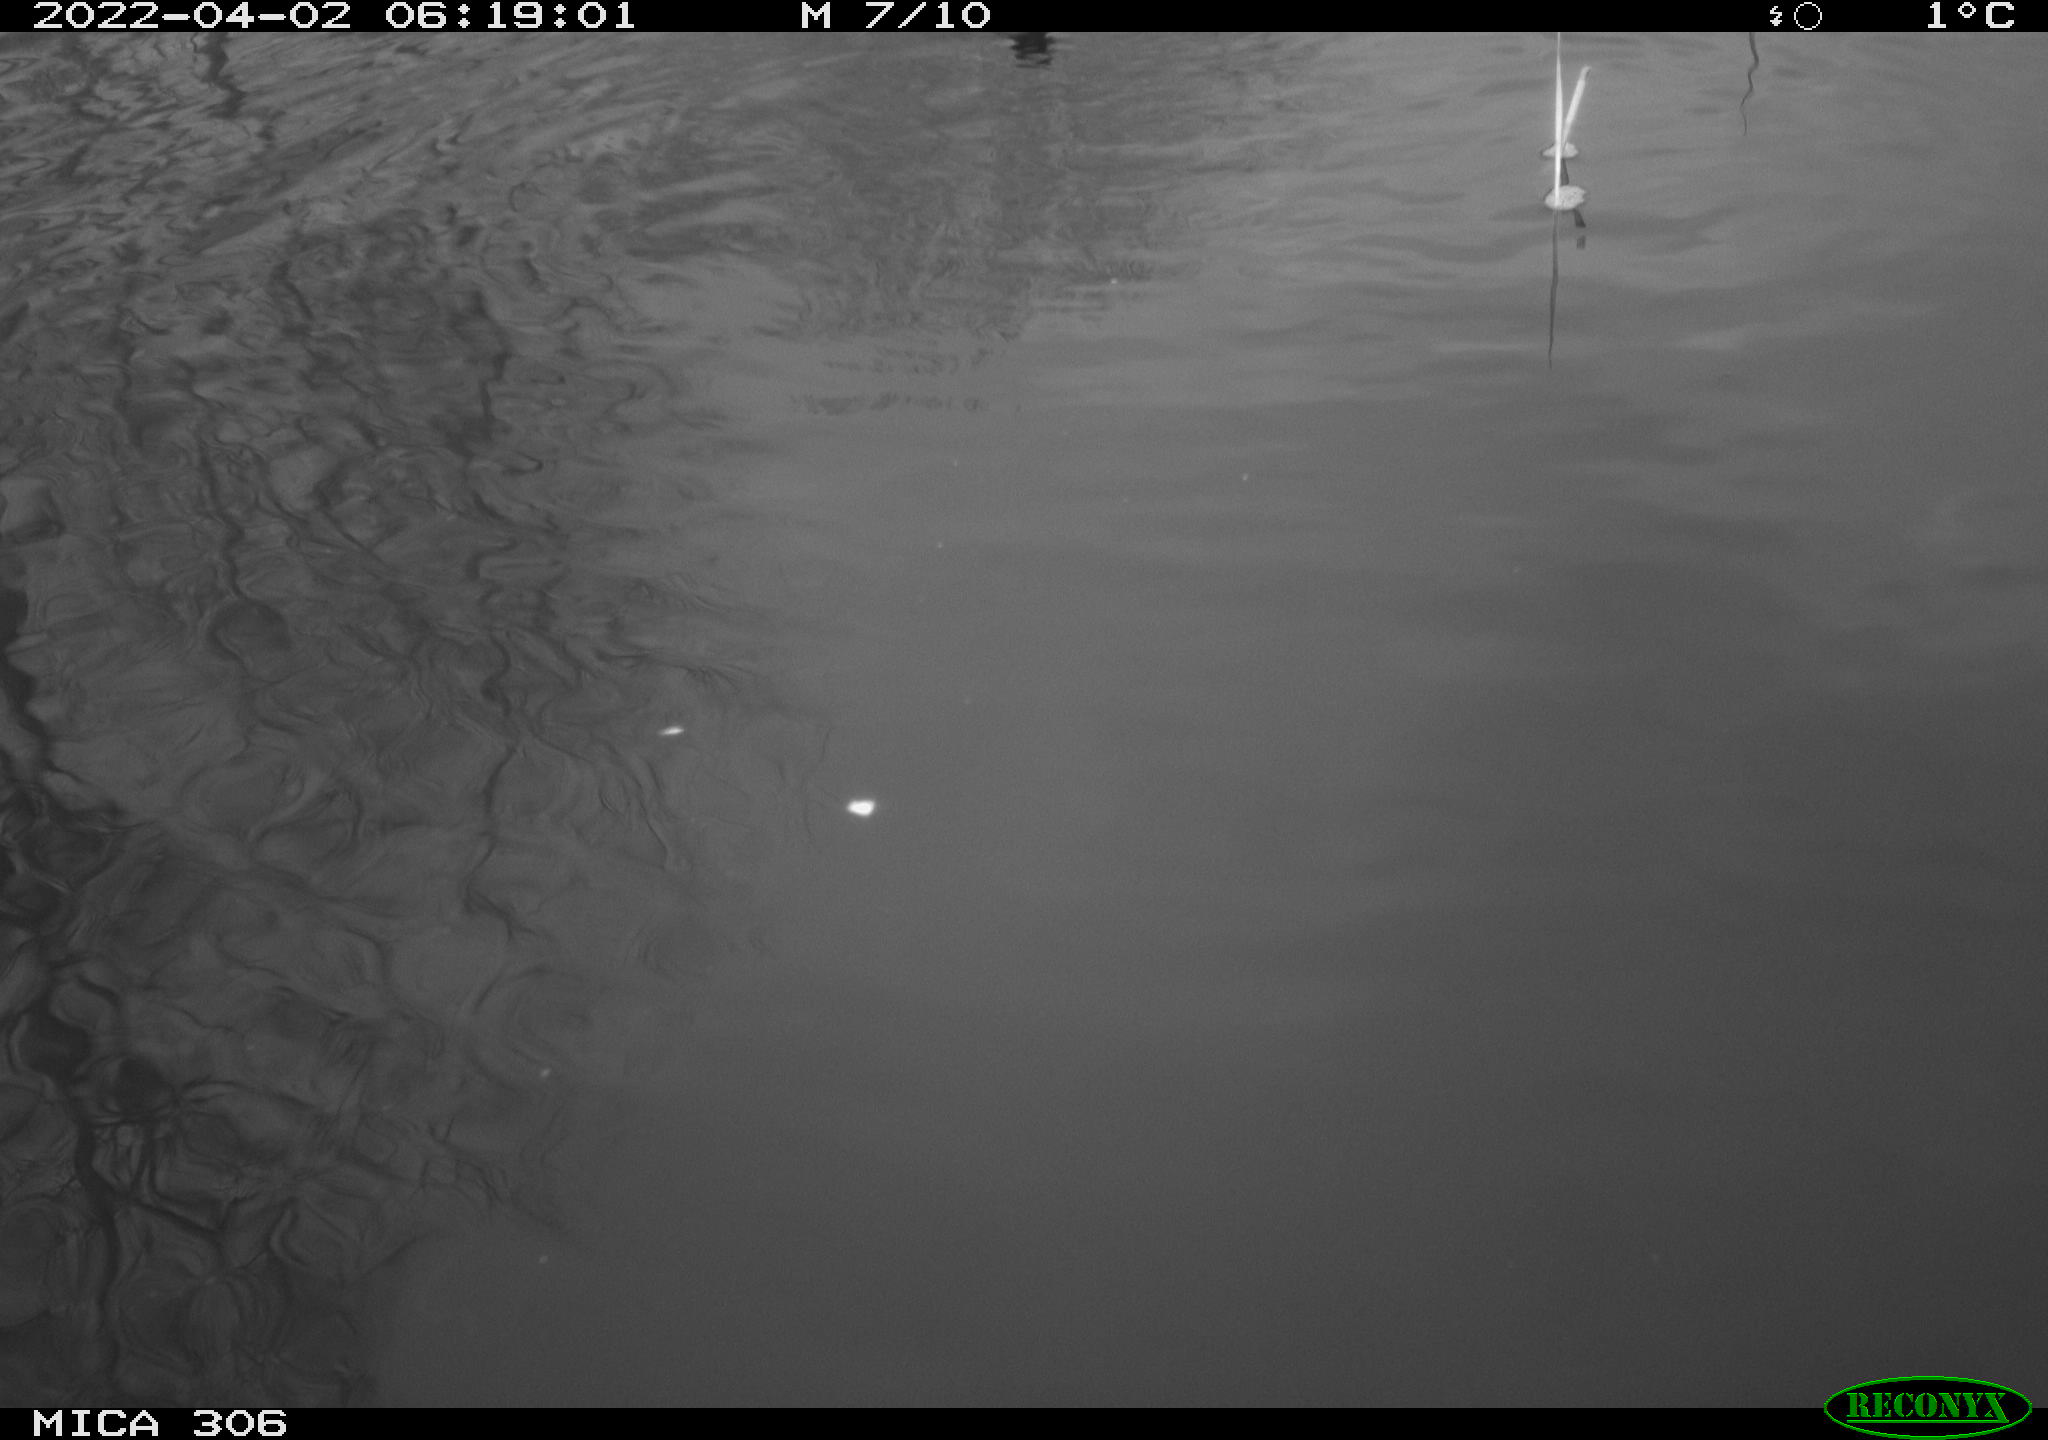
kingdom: Animalia
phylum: Chordata
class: Aves
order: Gruiformes
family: Rallidae
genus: Gallinula
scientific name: Gallinula chloropus
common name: Common moorhen
